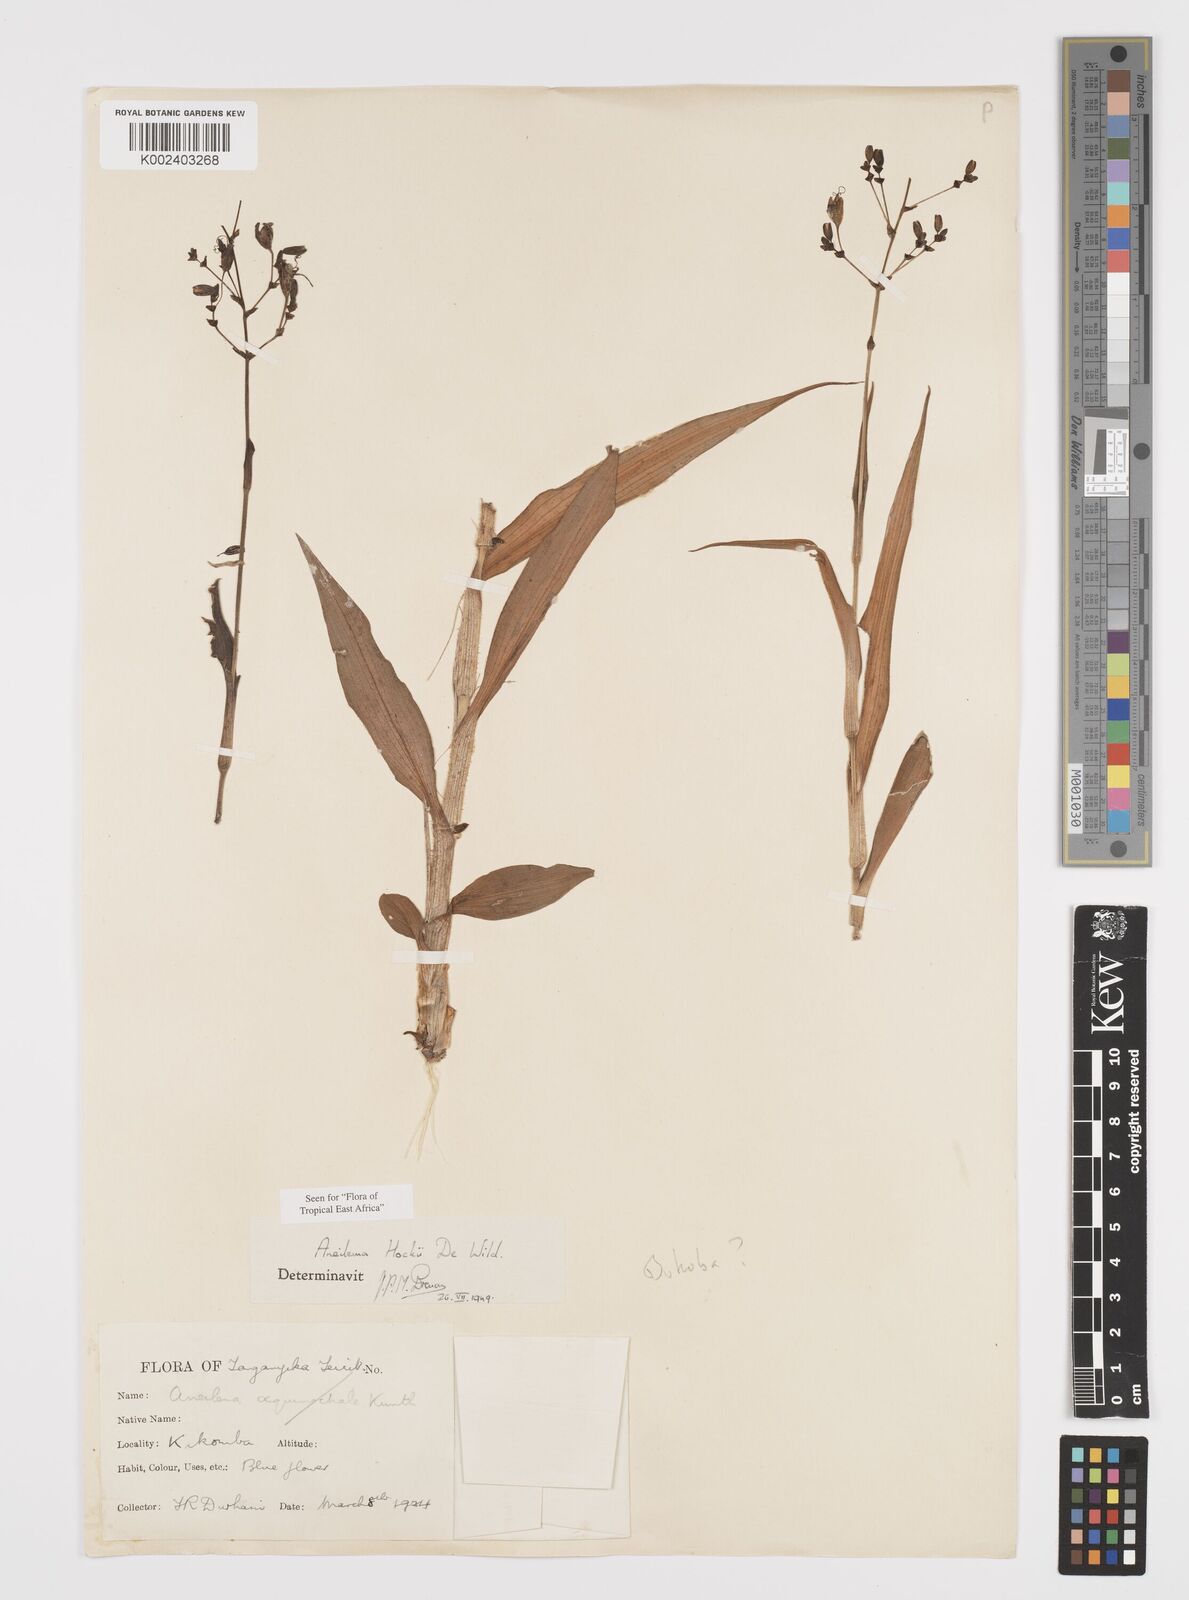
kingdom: Plantae
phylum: Tracheophyta
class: Liliopsida
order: Commelinales
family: Commelinaceae
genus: Aneilema
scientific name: Aneilema hockii
